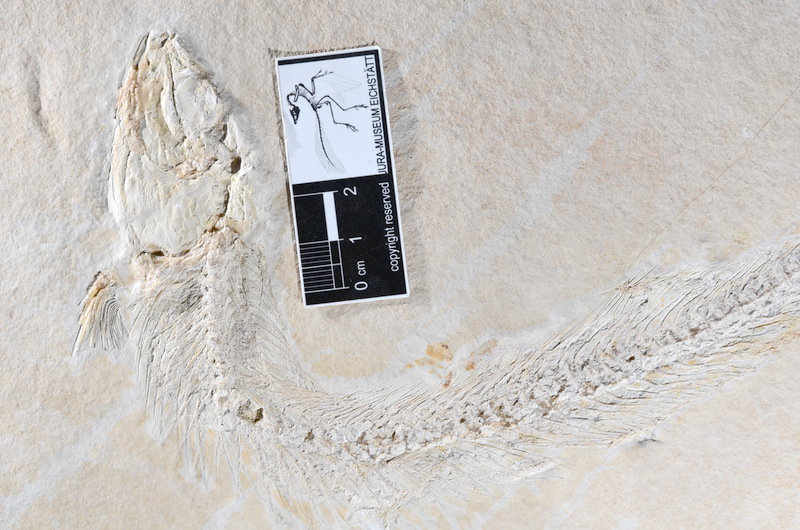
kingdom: Animalia
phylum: Chordata
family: Allothrissopidae
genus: Allothrissops
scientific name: Allothrissops mesogaster
